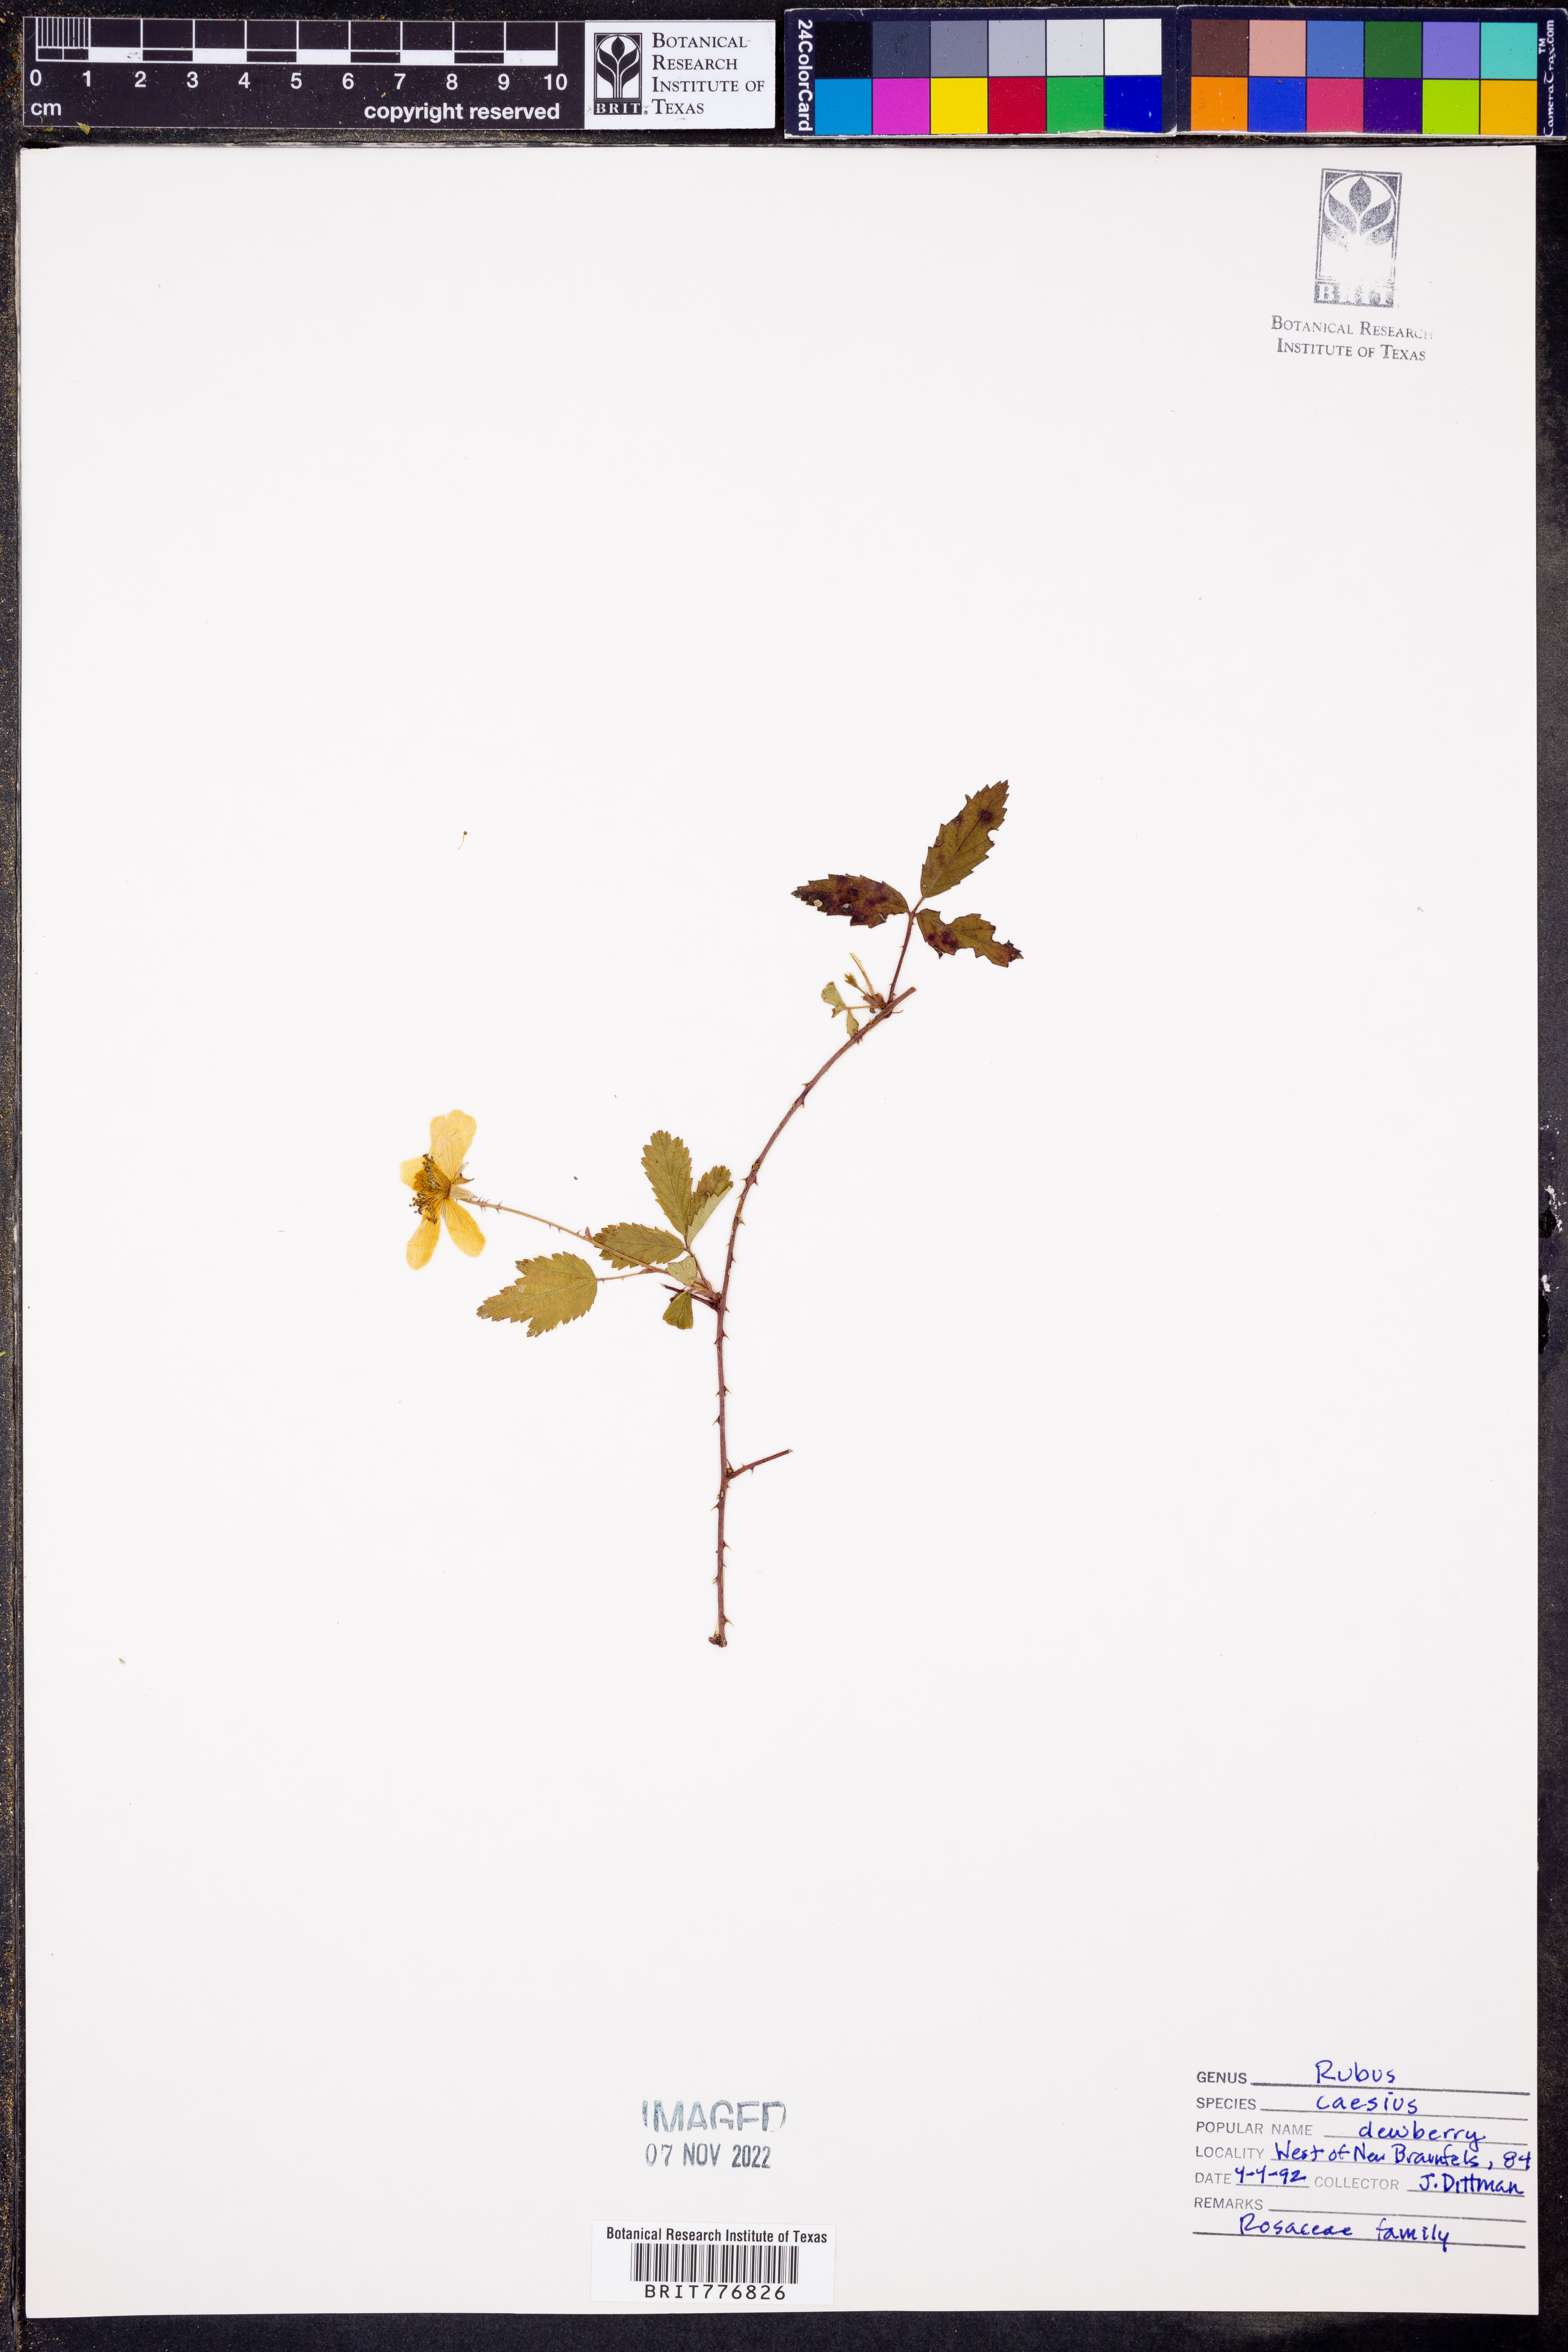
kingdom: Plantae
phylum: Tracheophyta
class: Magnoliopsida
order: Rosales
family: Rosaceae
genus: Rubus
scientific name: Rubus caesius
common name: Dewberry
